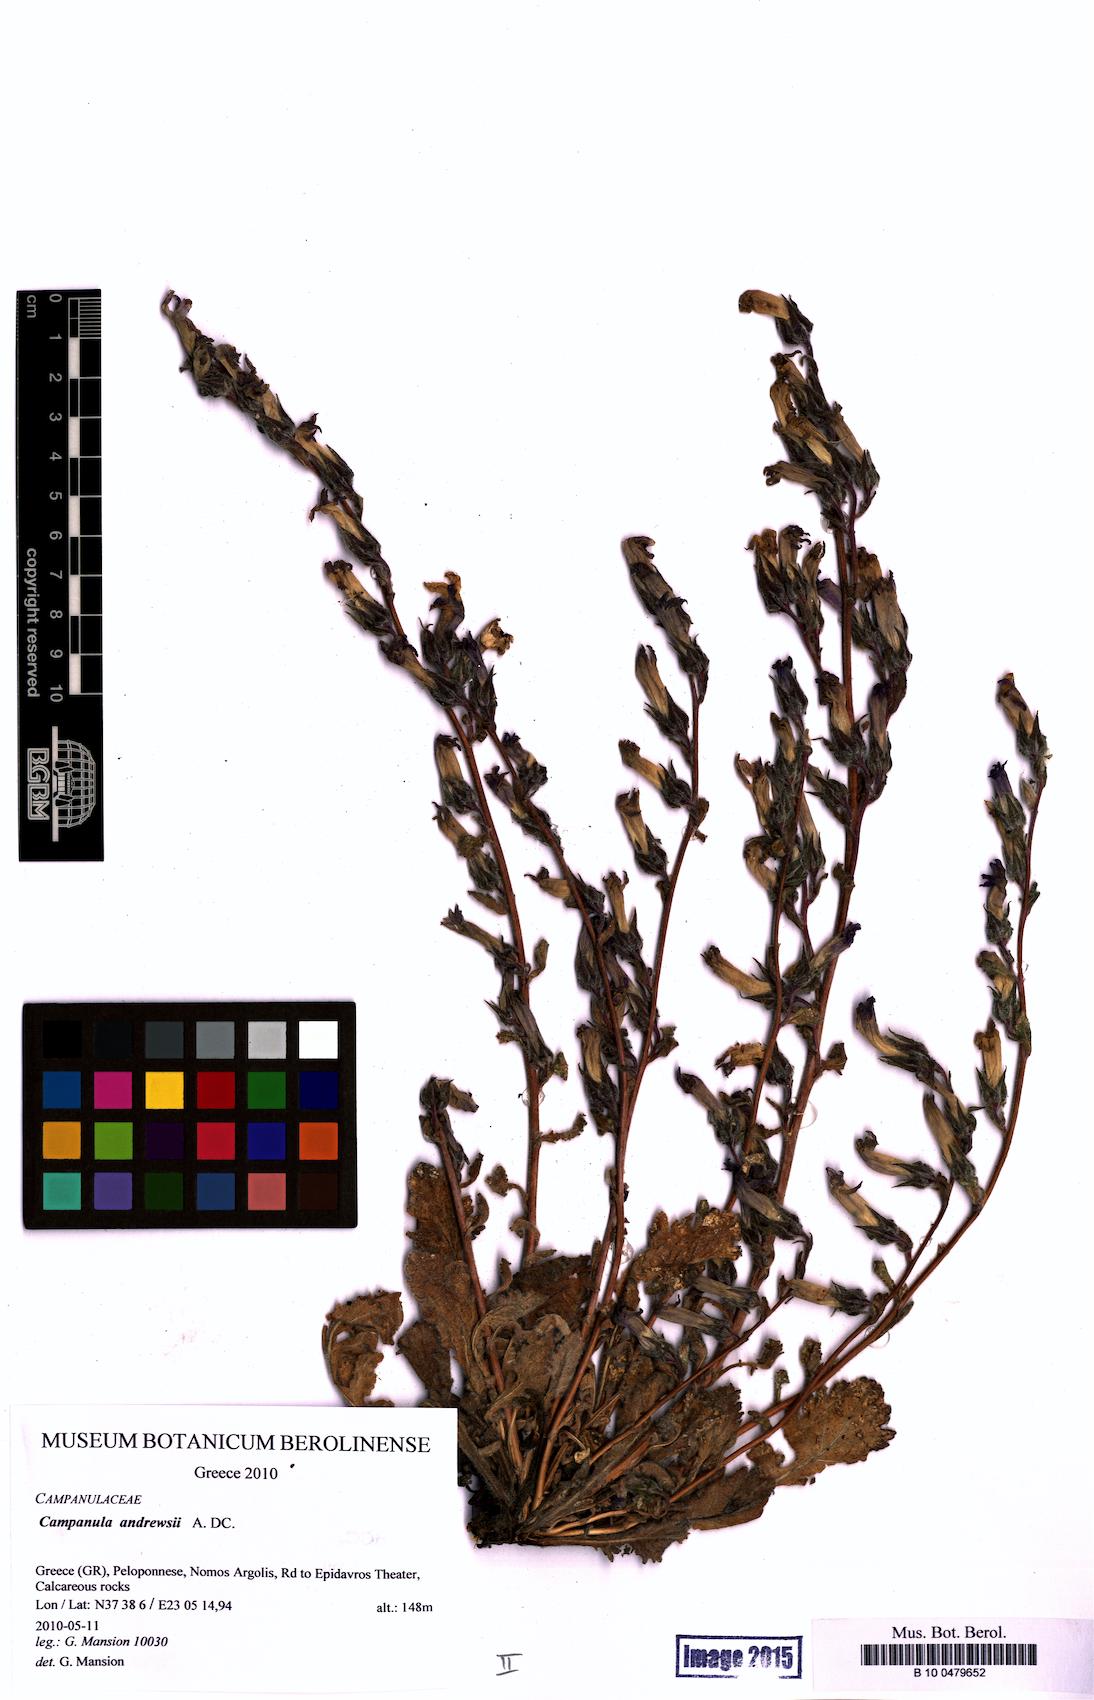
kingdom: Plantae
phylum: Tracheophyta
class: Magnoliopsida
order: Asterales
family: Campanulaceae
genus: Campanula
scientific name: Campanula andrewsii
